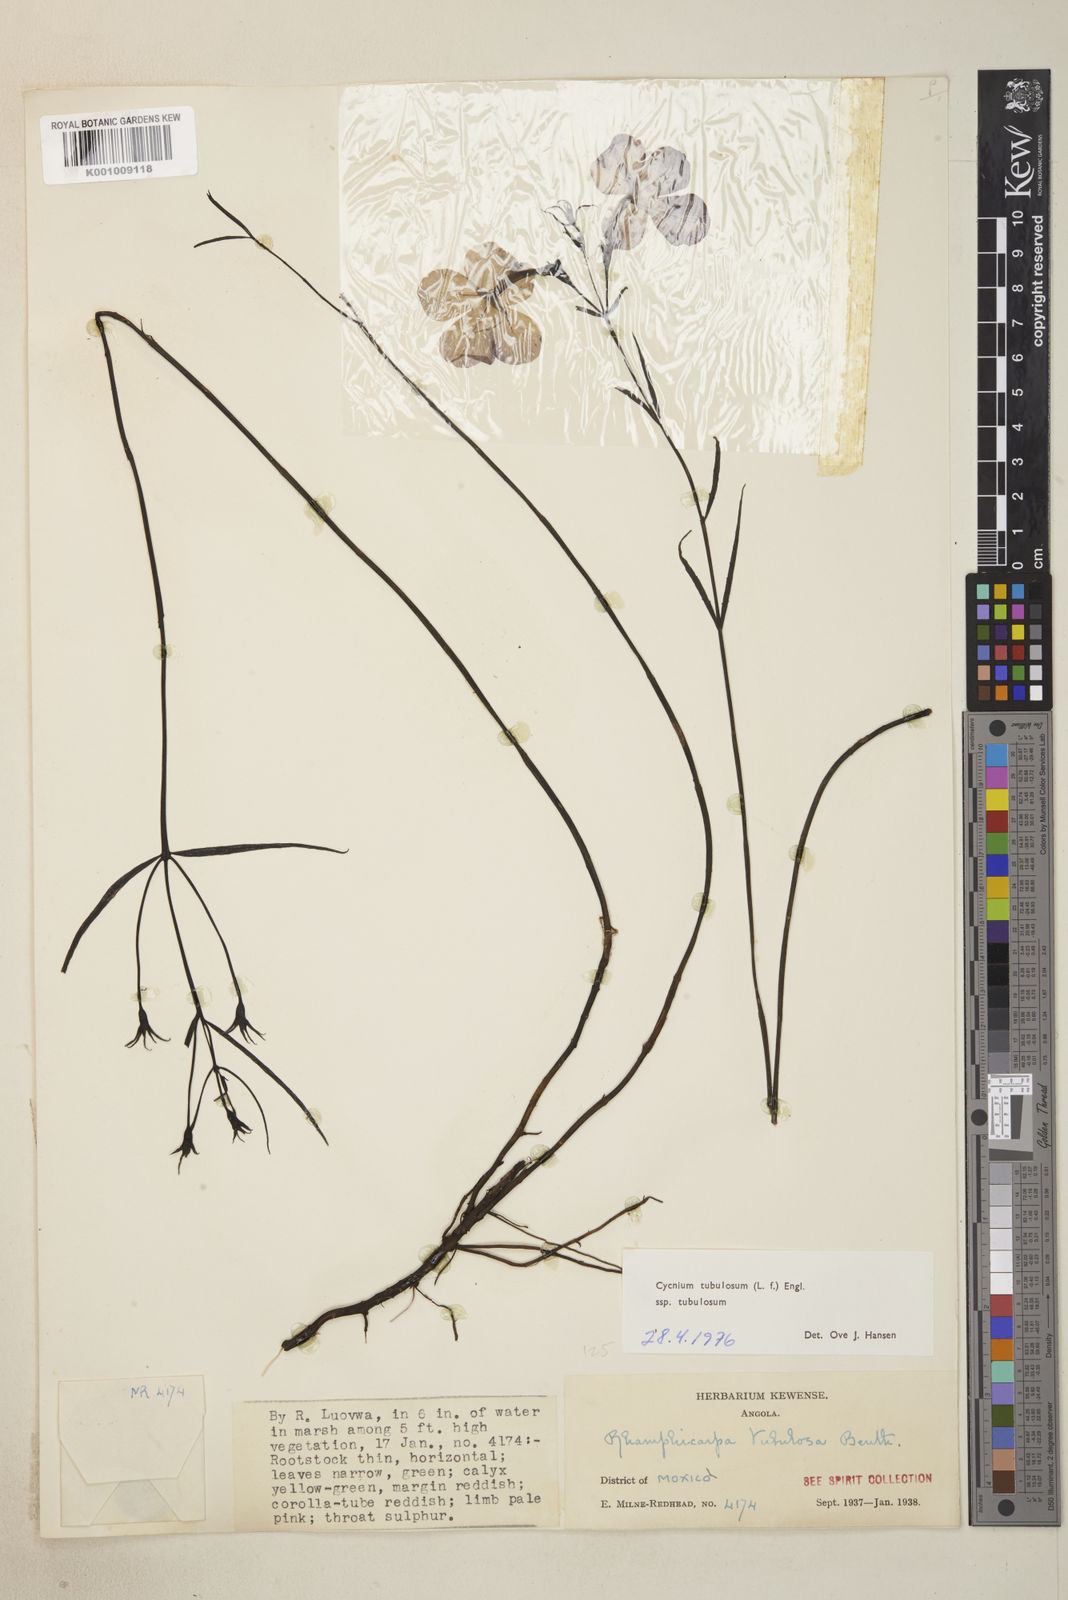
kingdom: Plantae
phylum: Tracheophyta
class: Magnoliopsida
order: Lamiales
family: Orobanchaceae
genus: Cycnium
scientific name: Cycnium tubulosum
